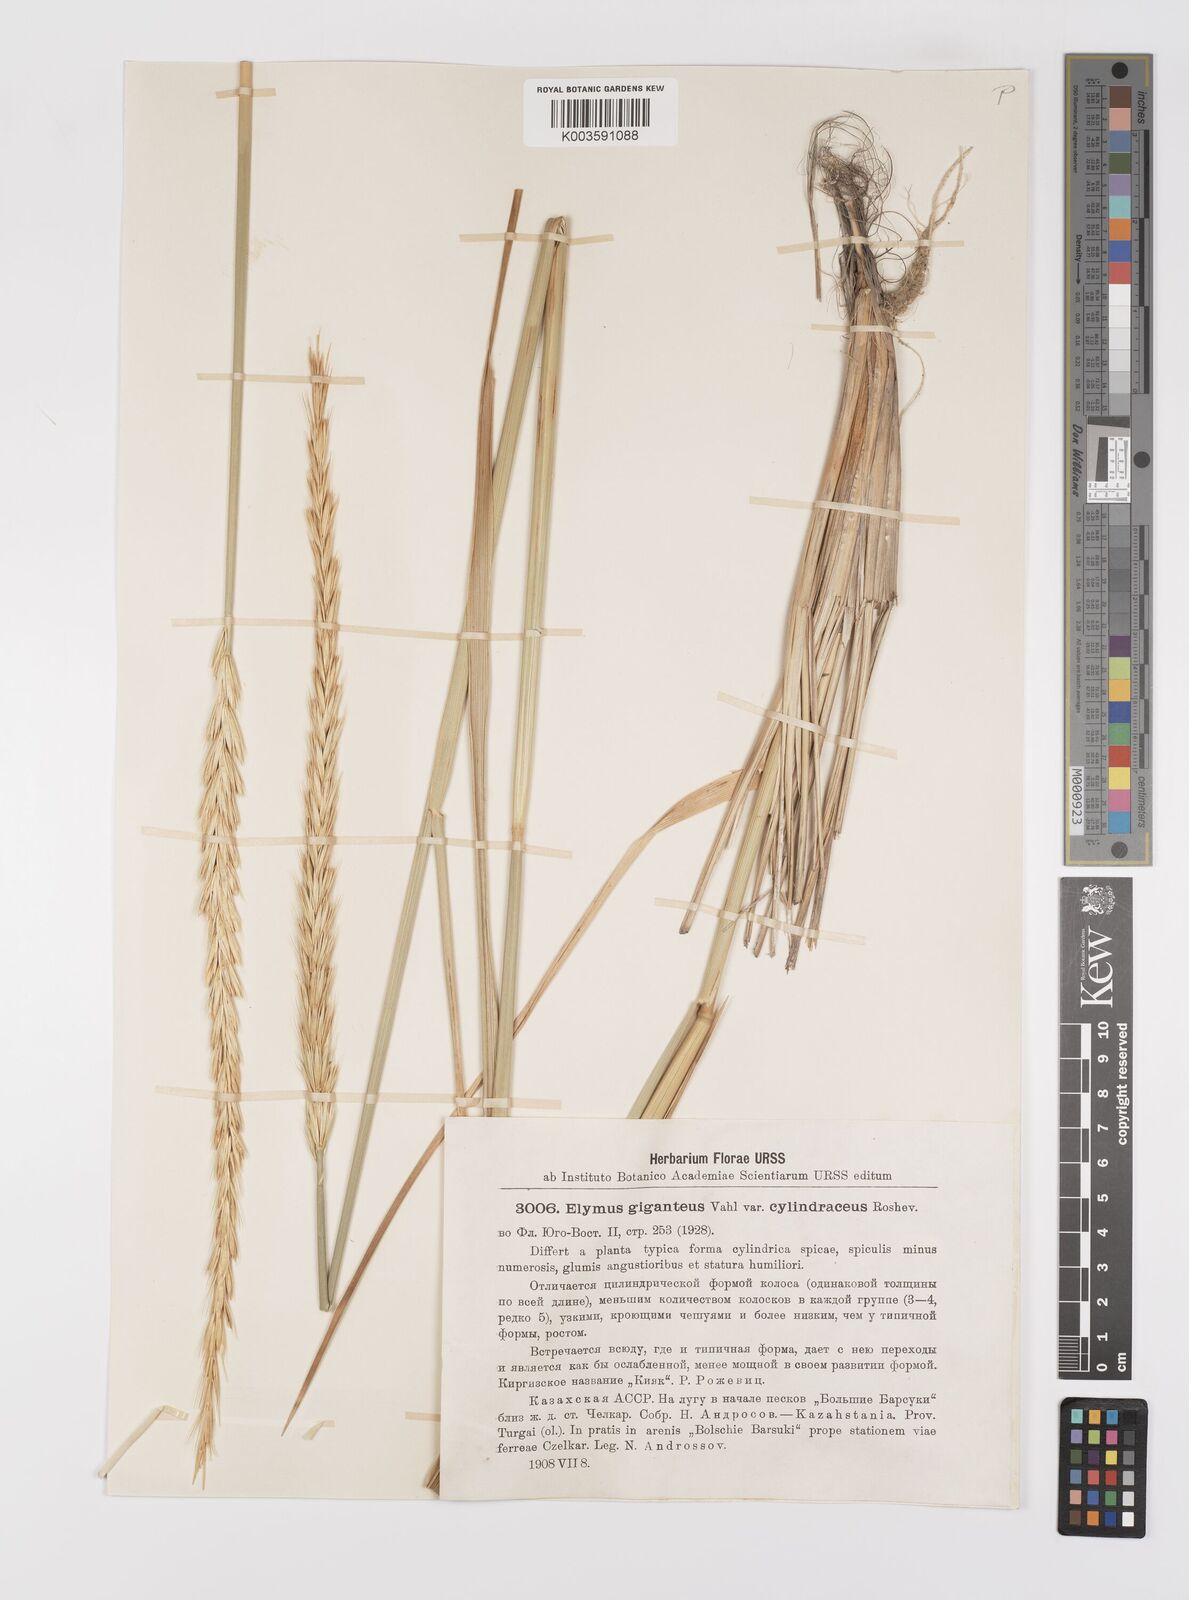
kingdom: Plantae
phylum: Tracheophyta
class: Liliopsida
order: Poales
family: Poaceae
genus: Leymus
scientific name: Leymus racemosus
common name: Mammoth wildrye
